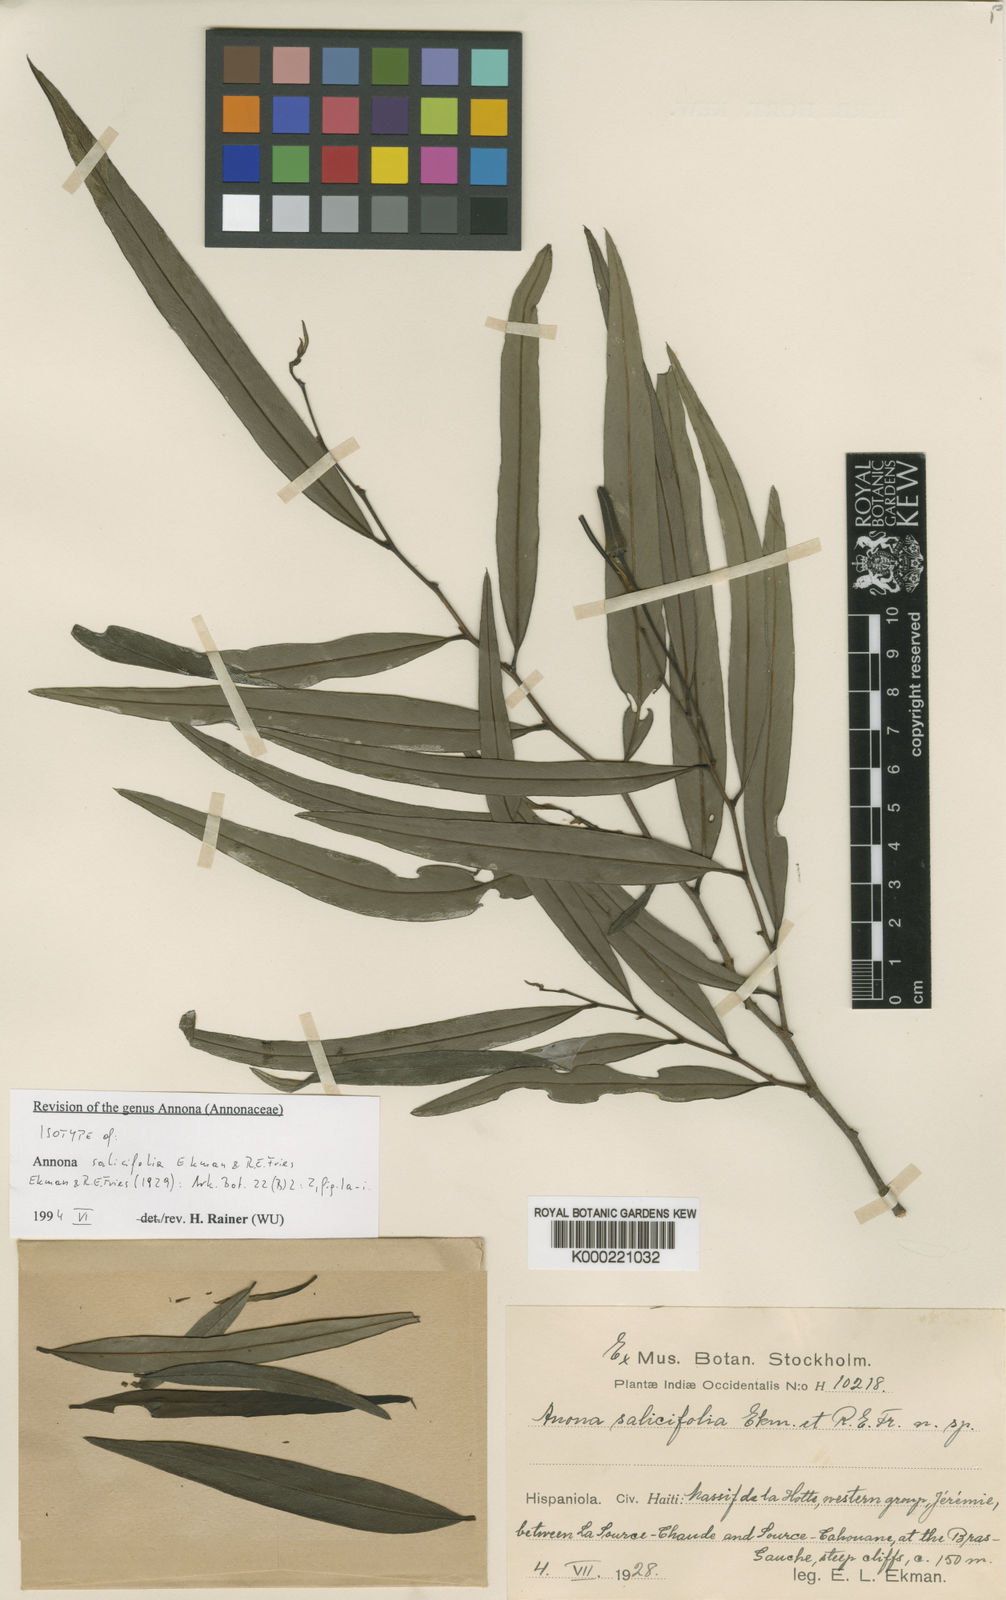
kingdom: Plantae
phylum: Tracheophyta
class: Magnoliopsida
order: Magnoliales
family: Annonaceae
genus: Annona
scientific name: Annona salicifolia
